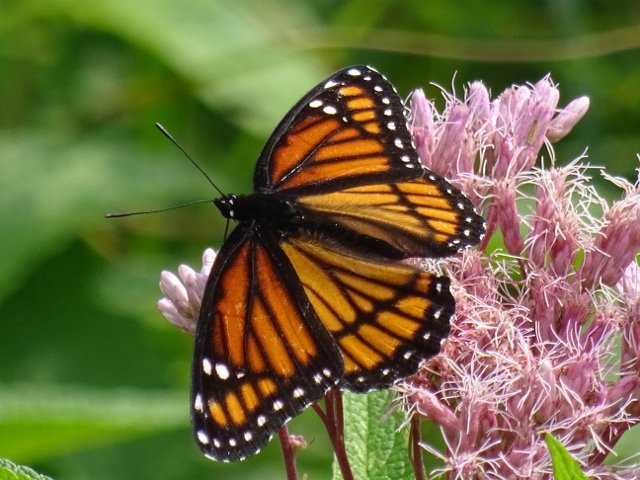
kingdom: Animalia
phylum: Arthropoda
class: Insecta
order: Lepidoptera
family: Nymphalidae
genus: Limenitis
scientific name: Limenitis archippus
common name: Viceroy
